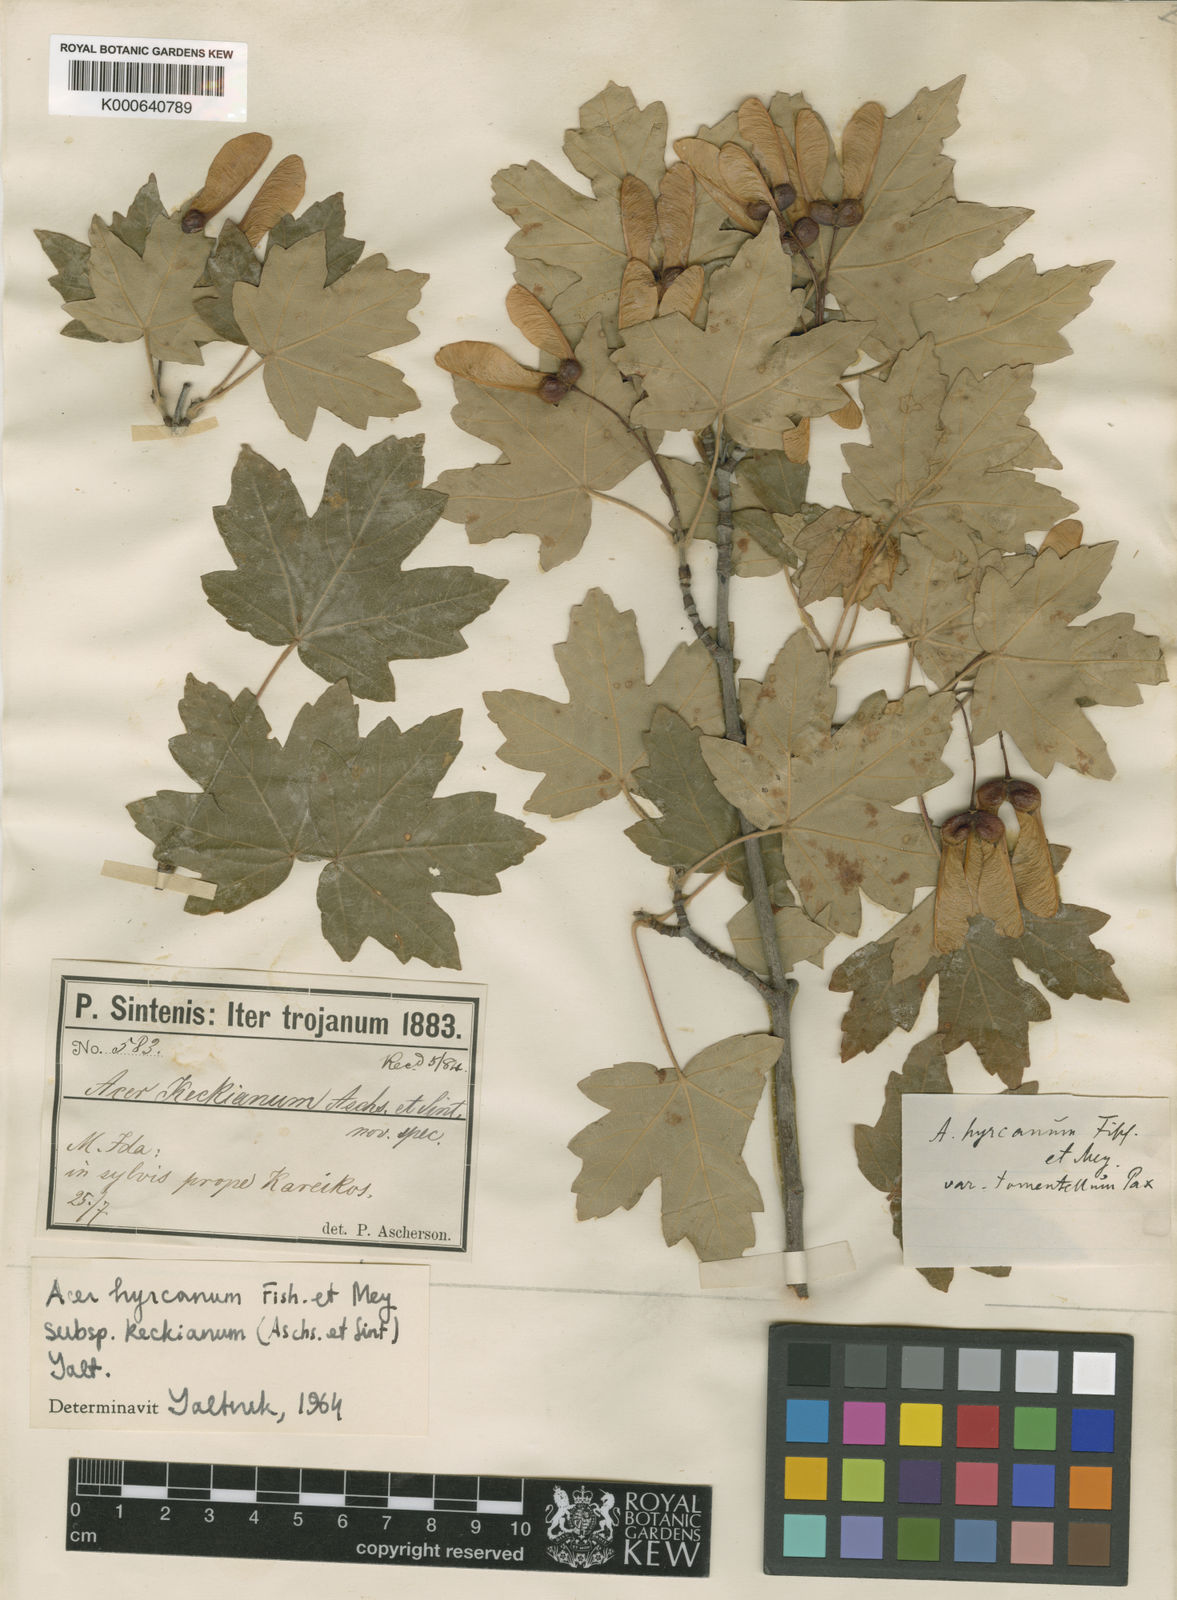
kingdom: Plantae
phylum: Tracheophyta
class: Magnoliopsida
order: Sapindales
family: Sapindaceae
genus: Acer
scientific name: Acer
